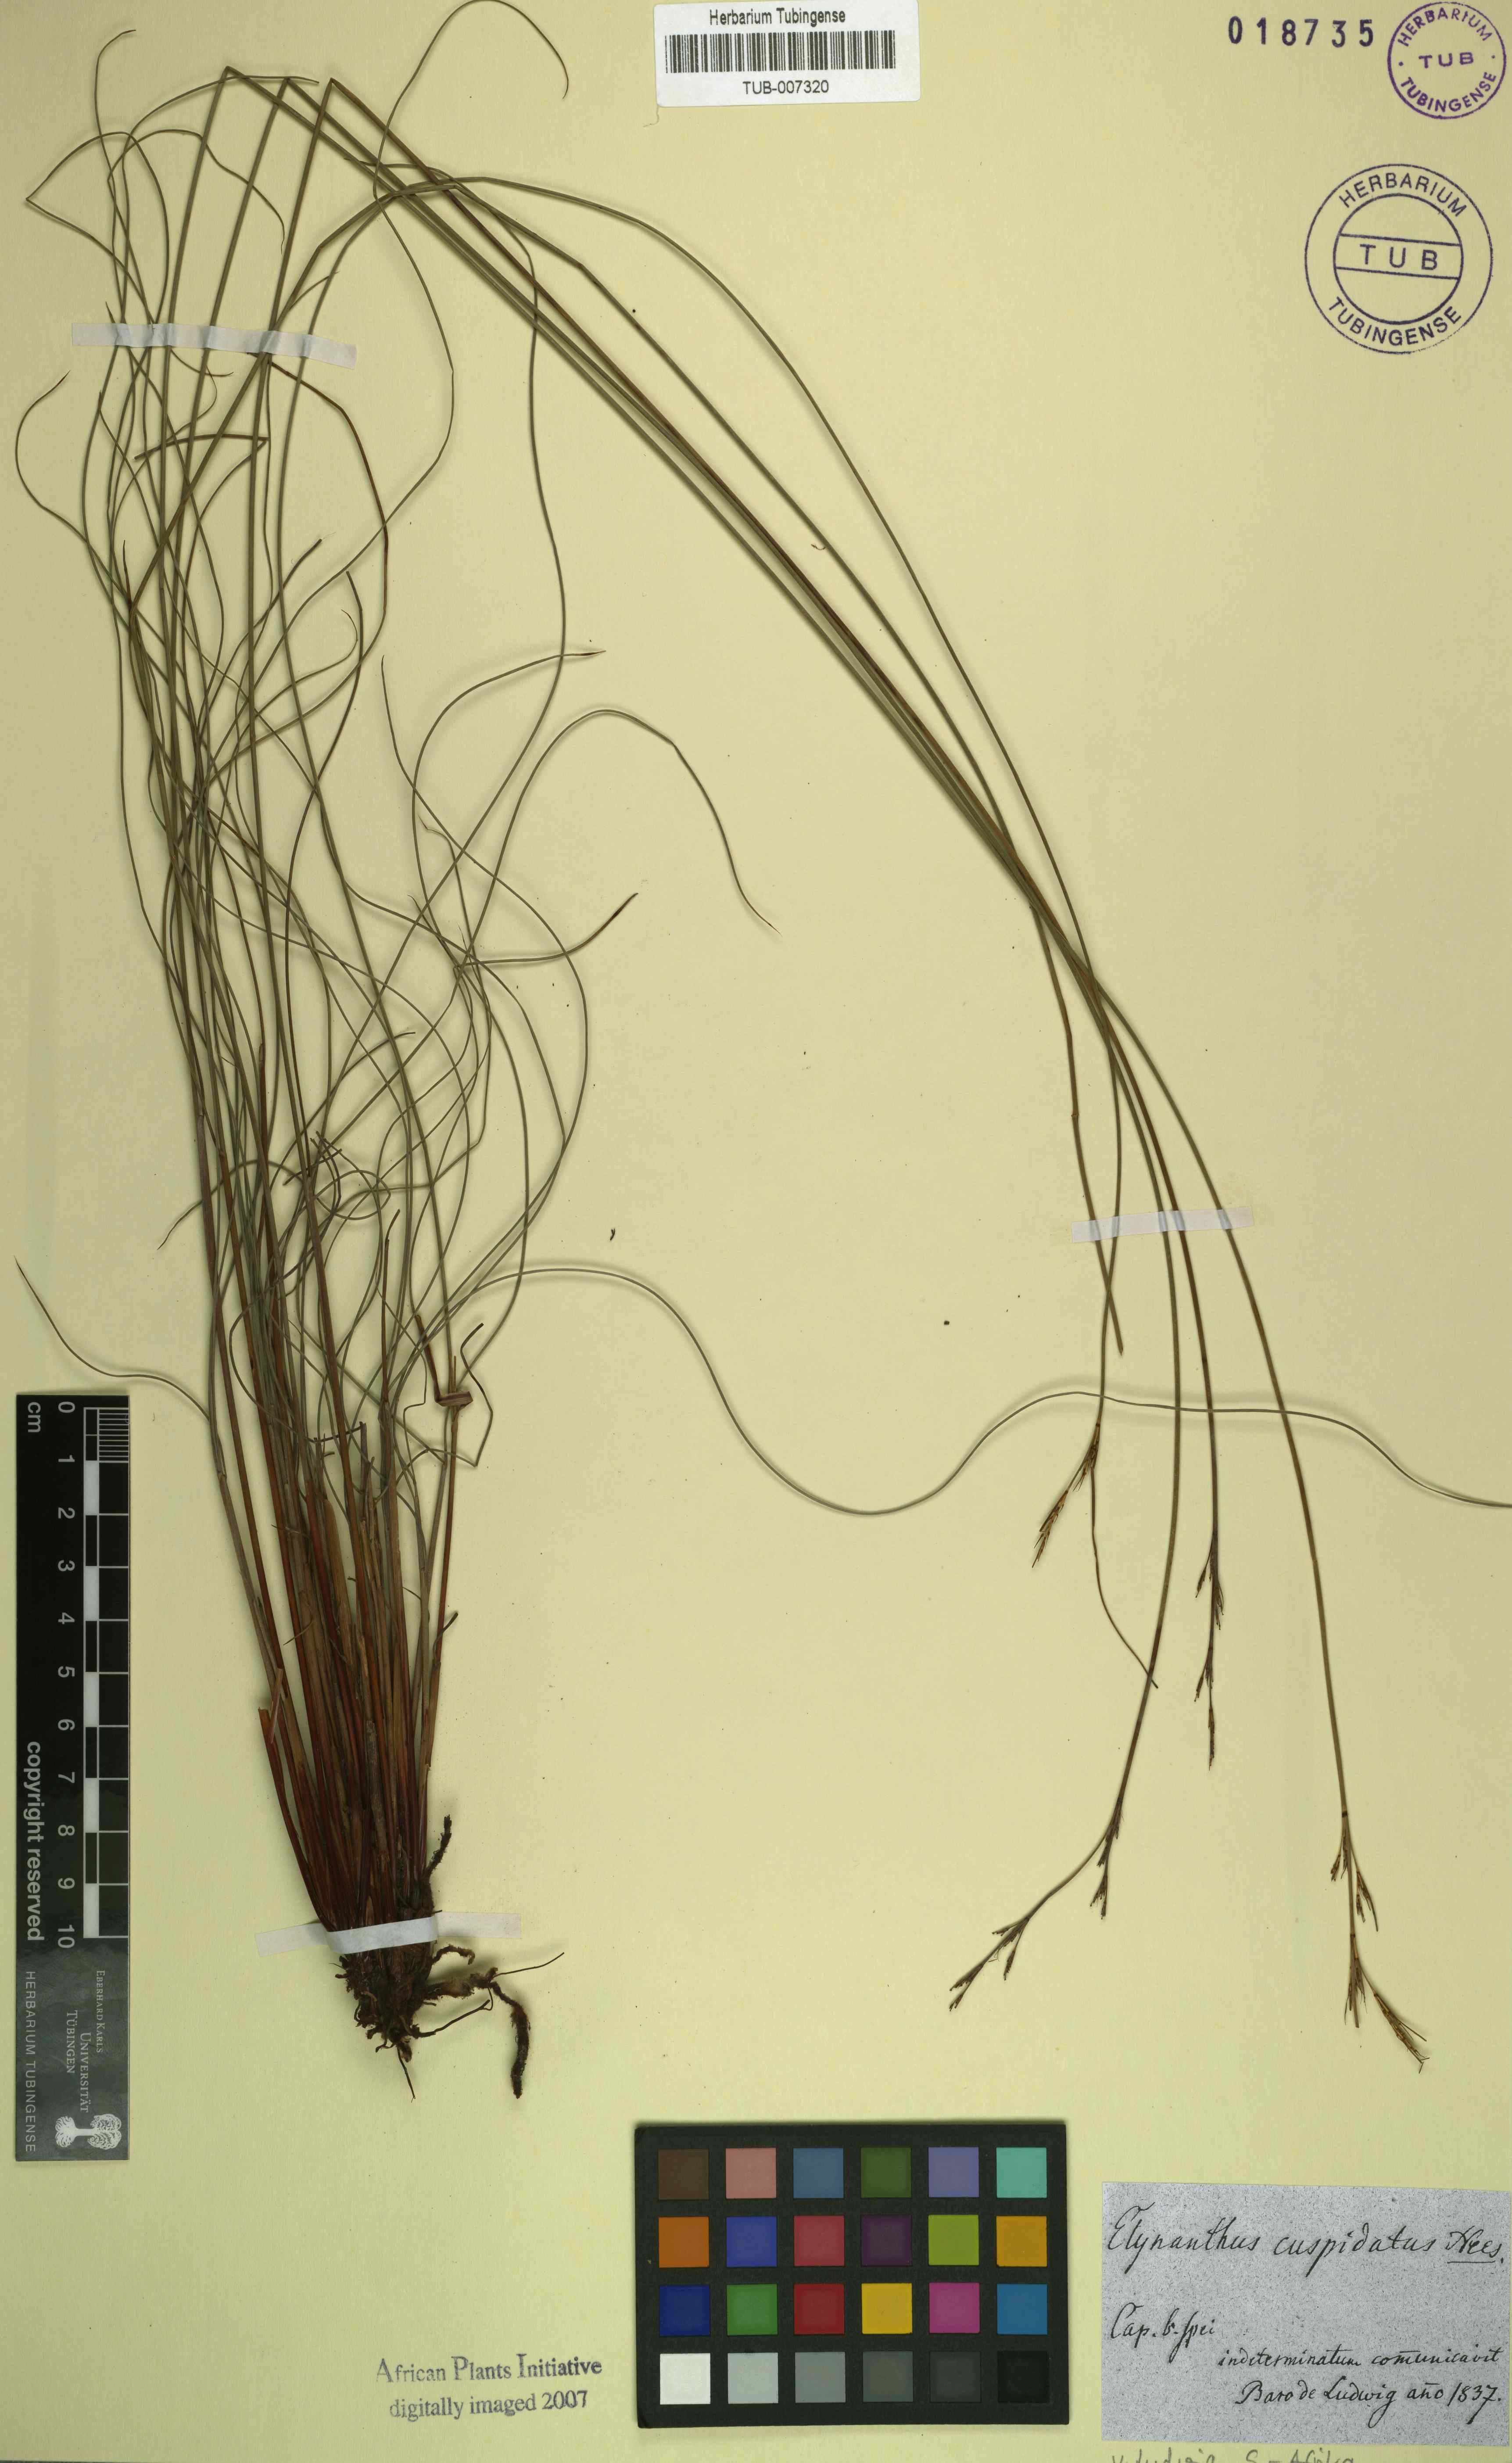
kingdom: Plantae
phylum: Tracheophyta
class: Liliopsida
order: Poales
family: Cyperaceae
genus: Schoenus
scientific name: Schoenus cuspidatus
